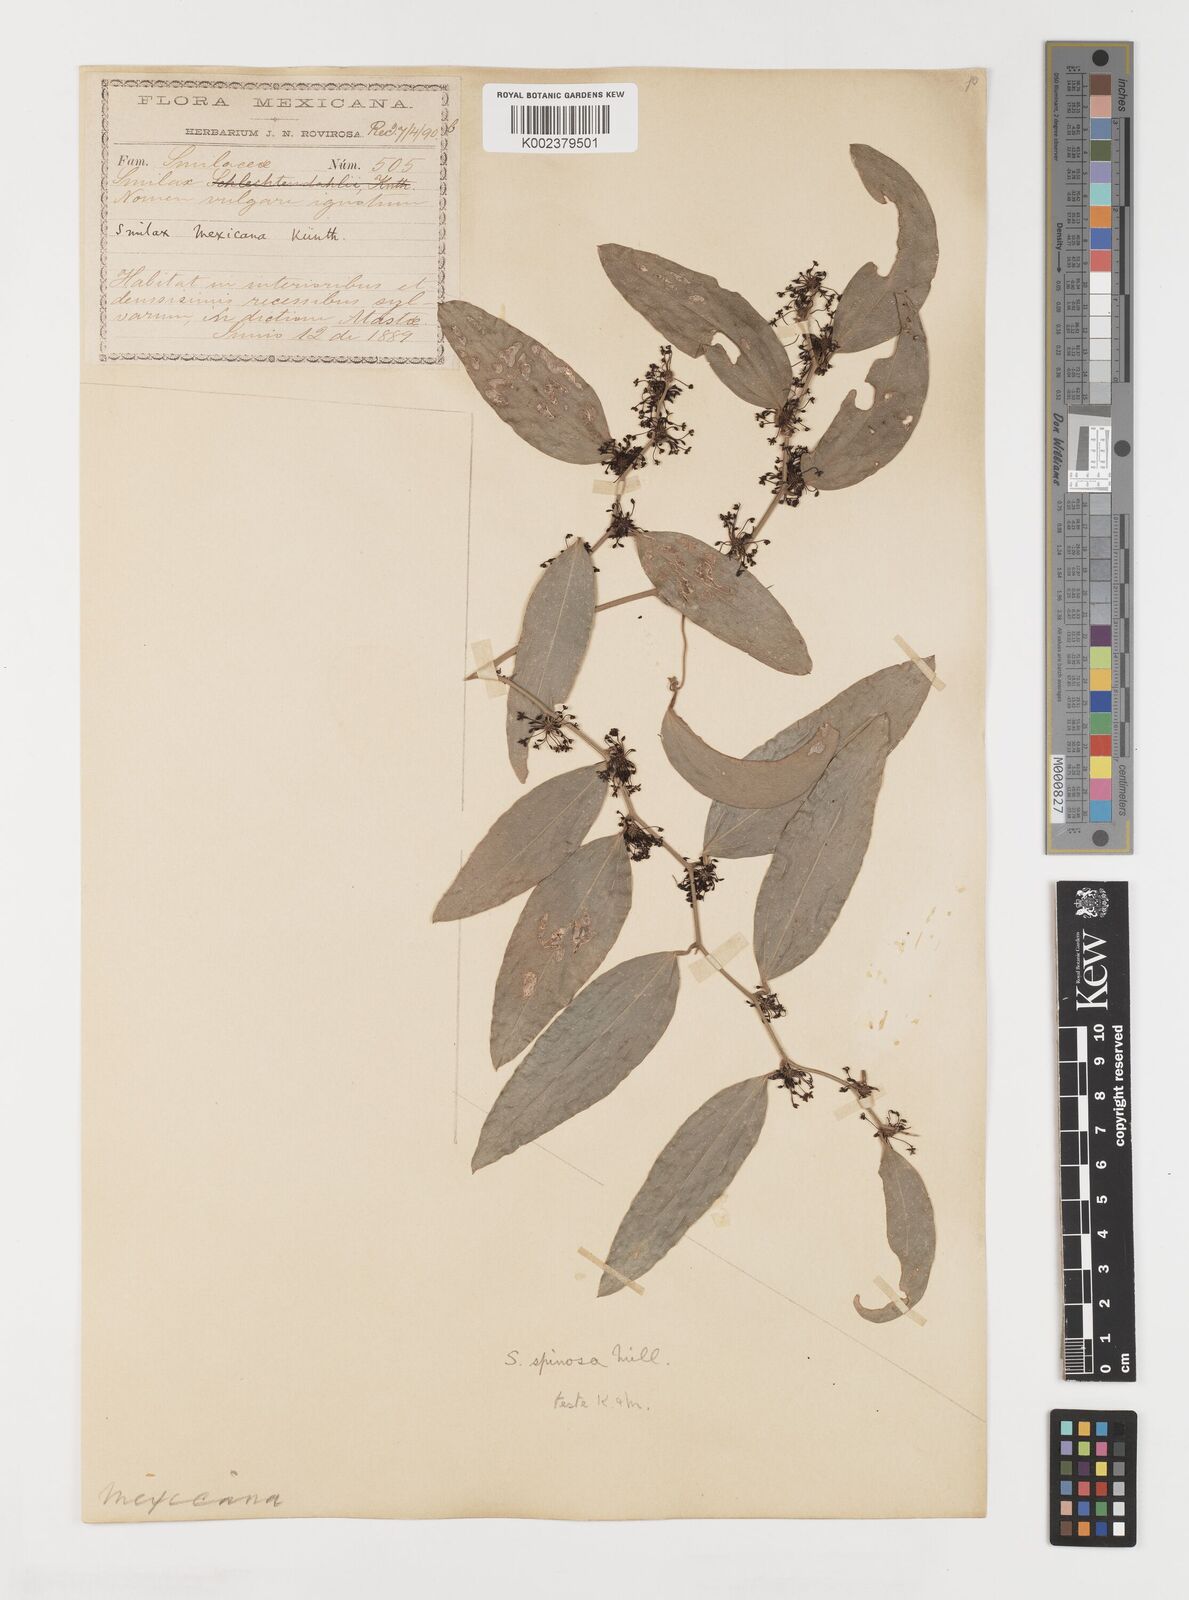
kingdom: Plantae
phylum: Tracheophyta
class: Liliopsida
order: Liliales
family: Smilacaceae
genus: Smilax
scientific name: Smilax spinosa
